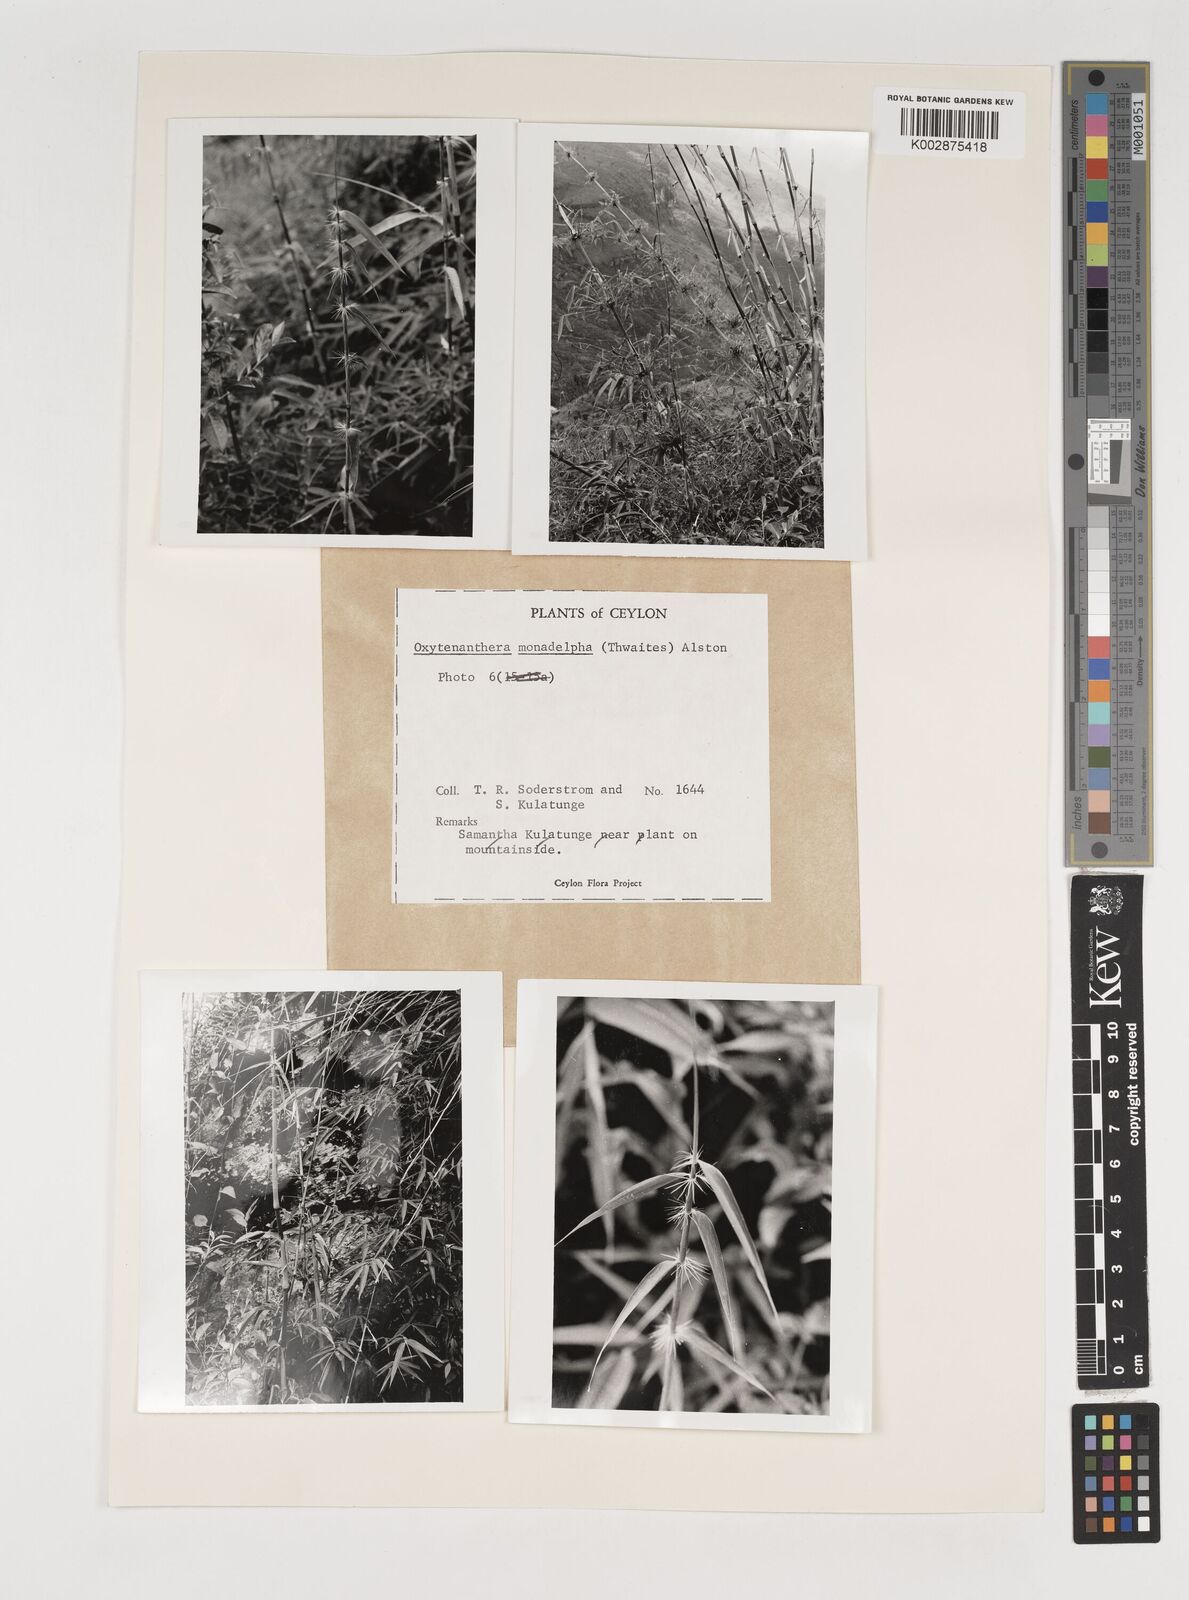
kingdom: Plantae
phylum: Tracheophyta
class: Liliopsida
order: Poales
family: Poaceae
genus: Dendrocalamus
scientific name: Dendrocalamus
